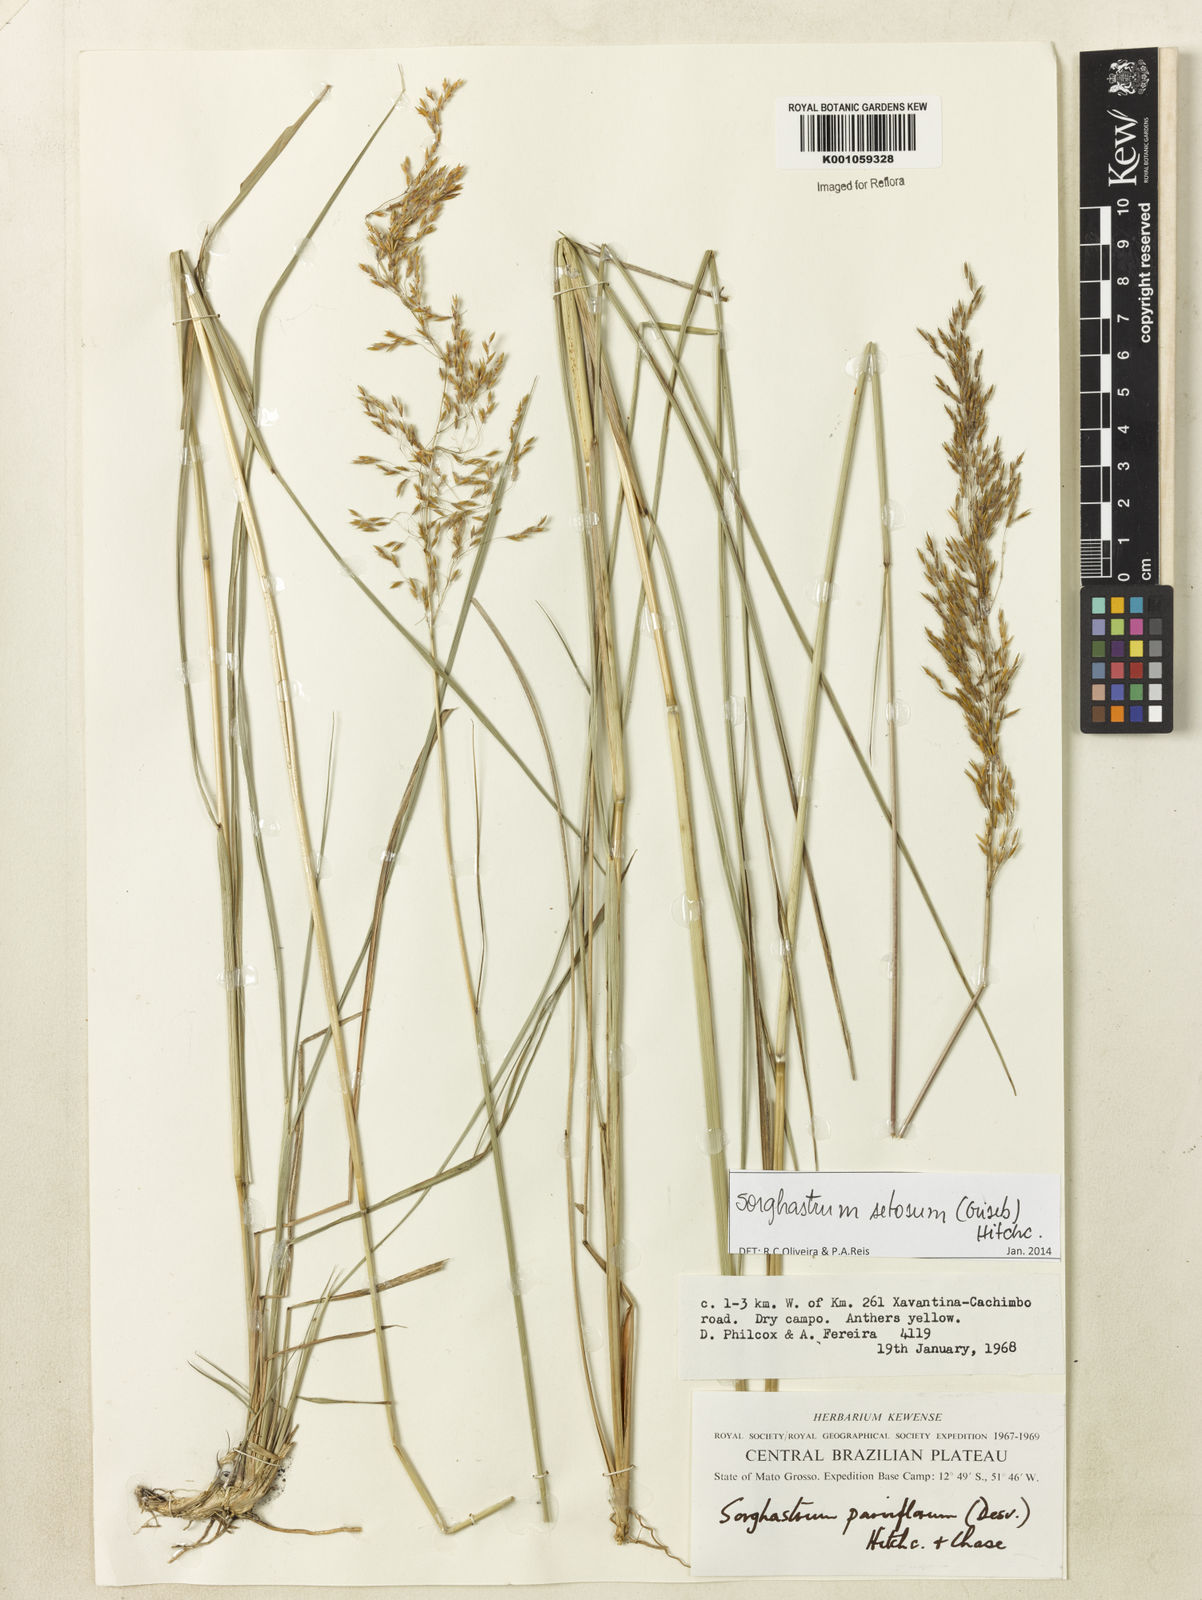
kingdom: Plantae
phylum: Tracheophyta
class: Liliopsida
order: Poales
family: Poaceae
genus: Sorghastrum
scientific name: Sorghastrum setosum
